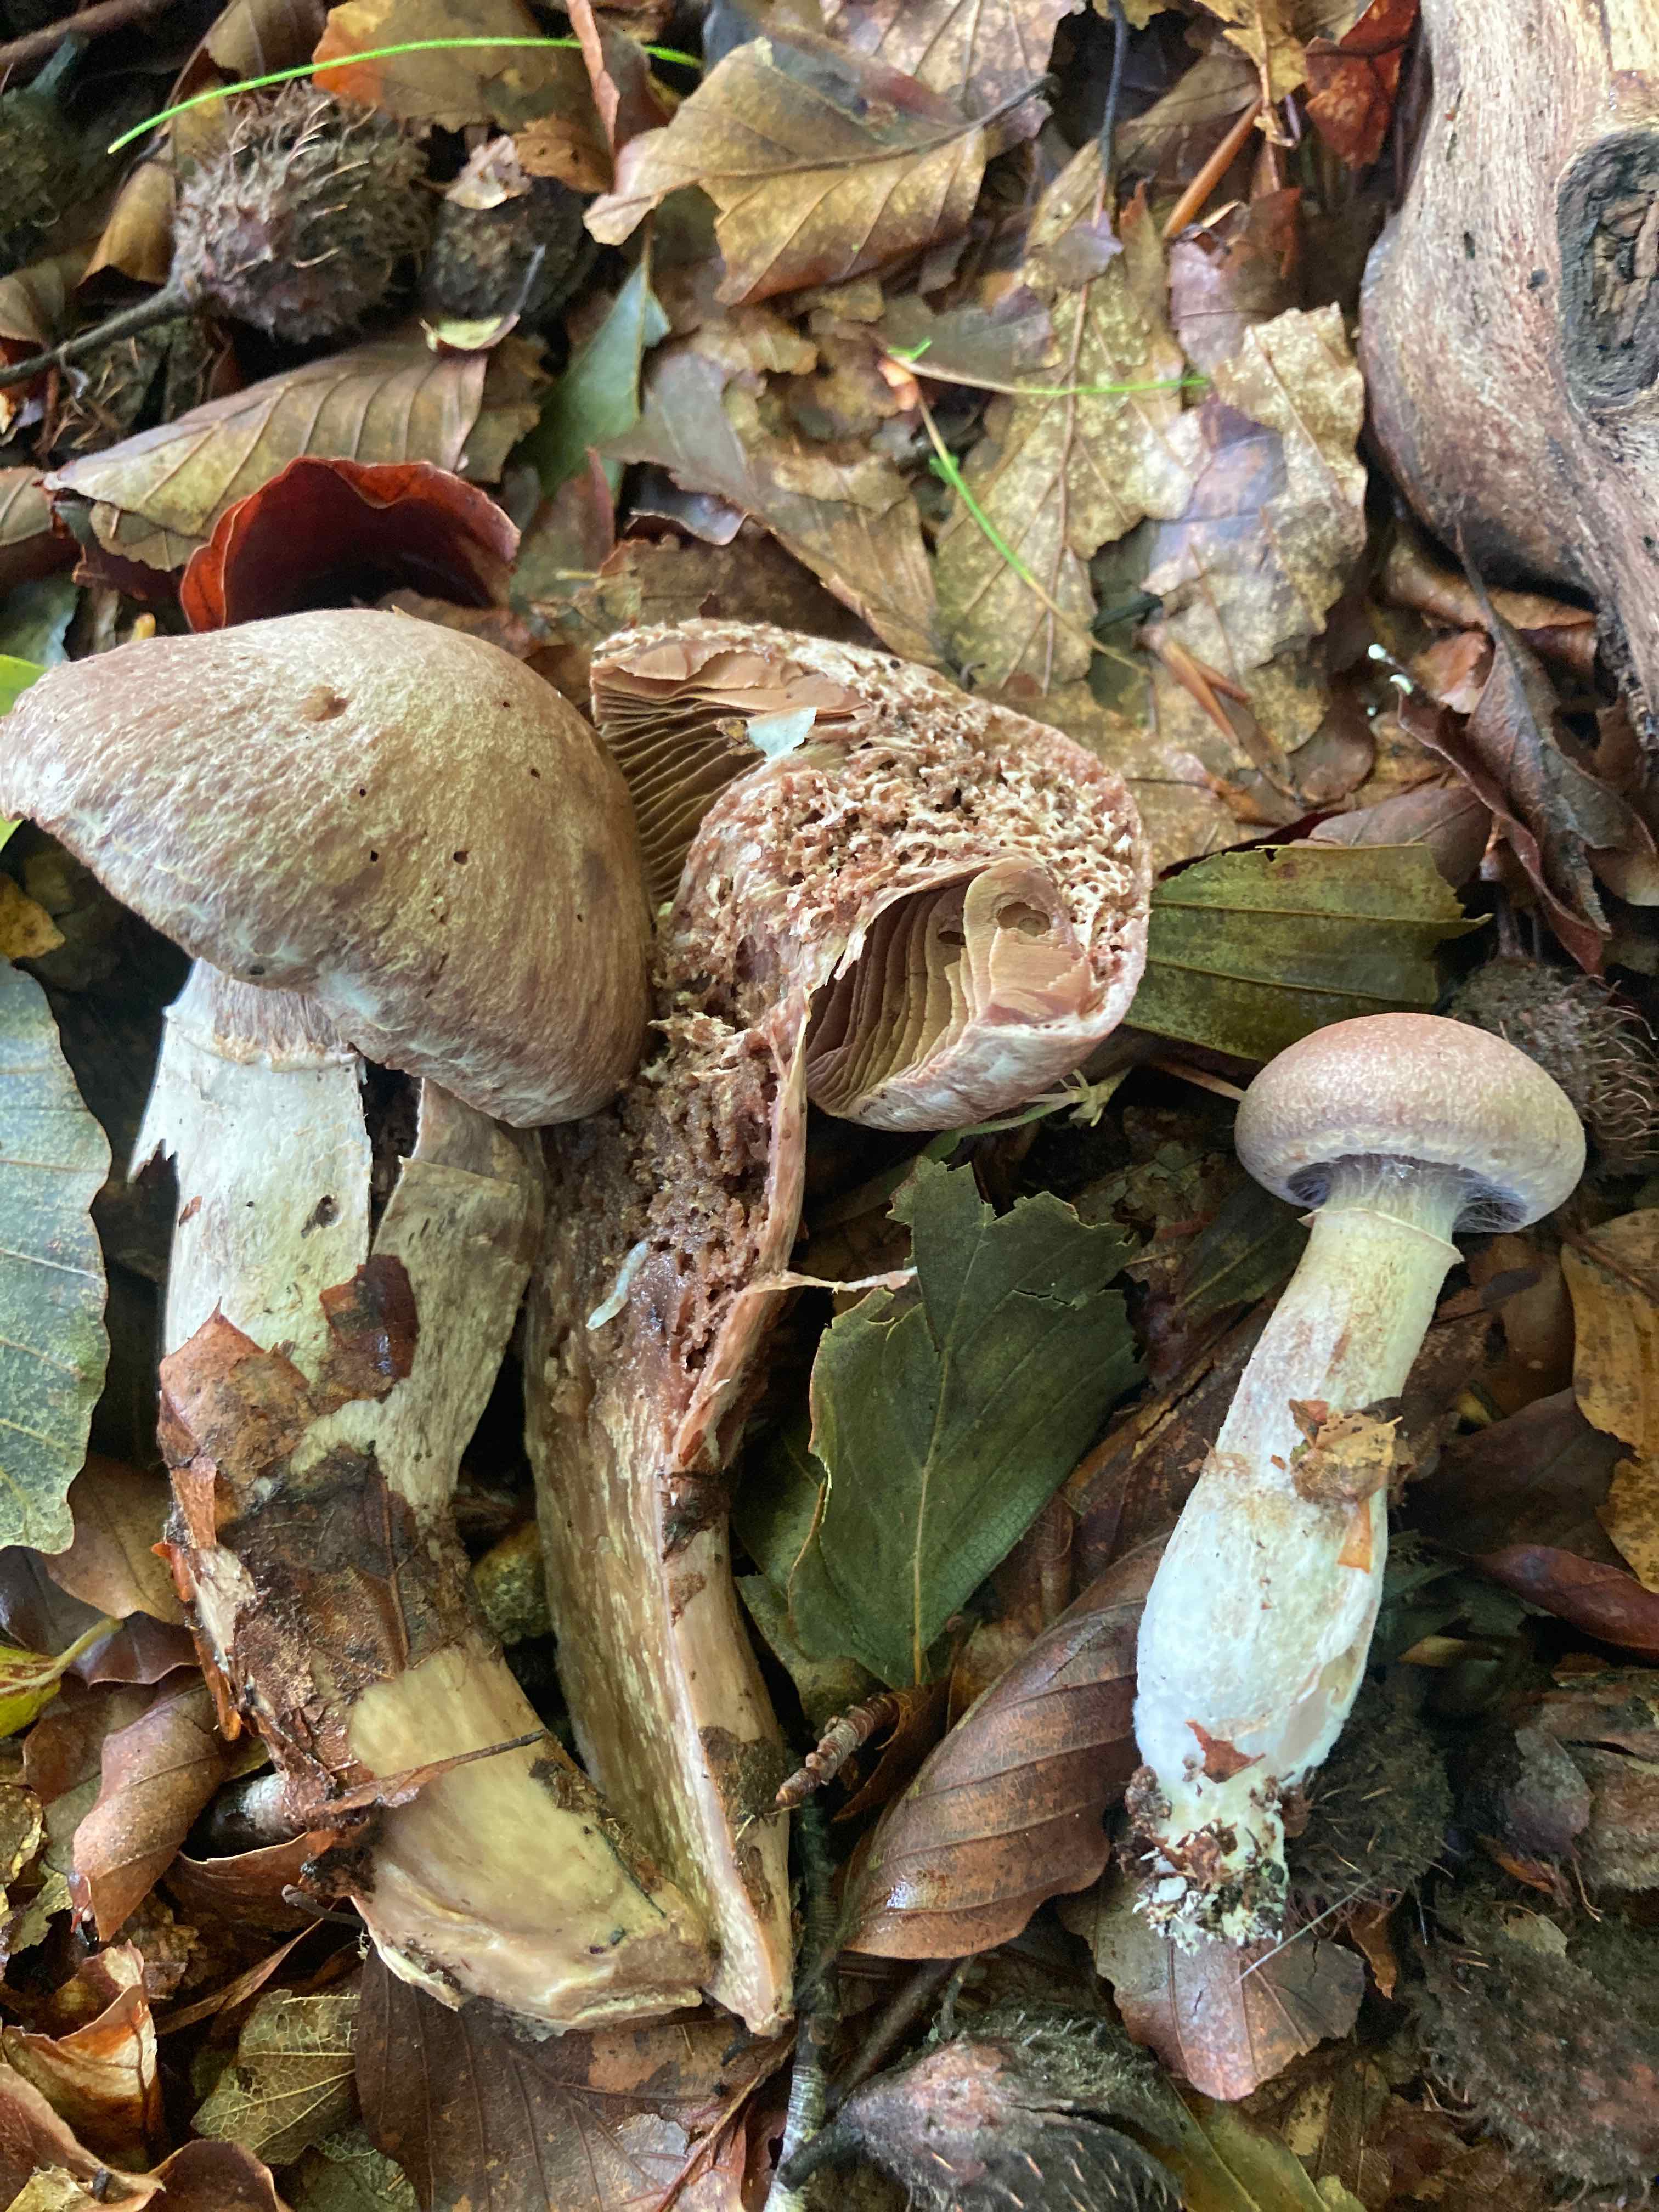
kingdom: Fungi
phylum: Basidiomycota
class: Agaricomycetes
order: Agaricales
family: Cortinariaceae
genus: Cortinarius
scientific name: Cortinarius torvus
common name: champignonagtig slørhat
